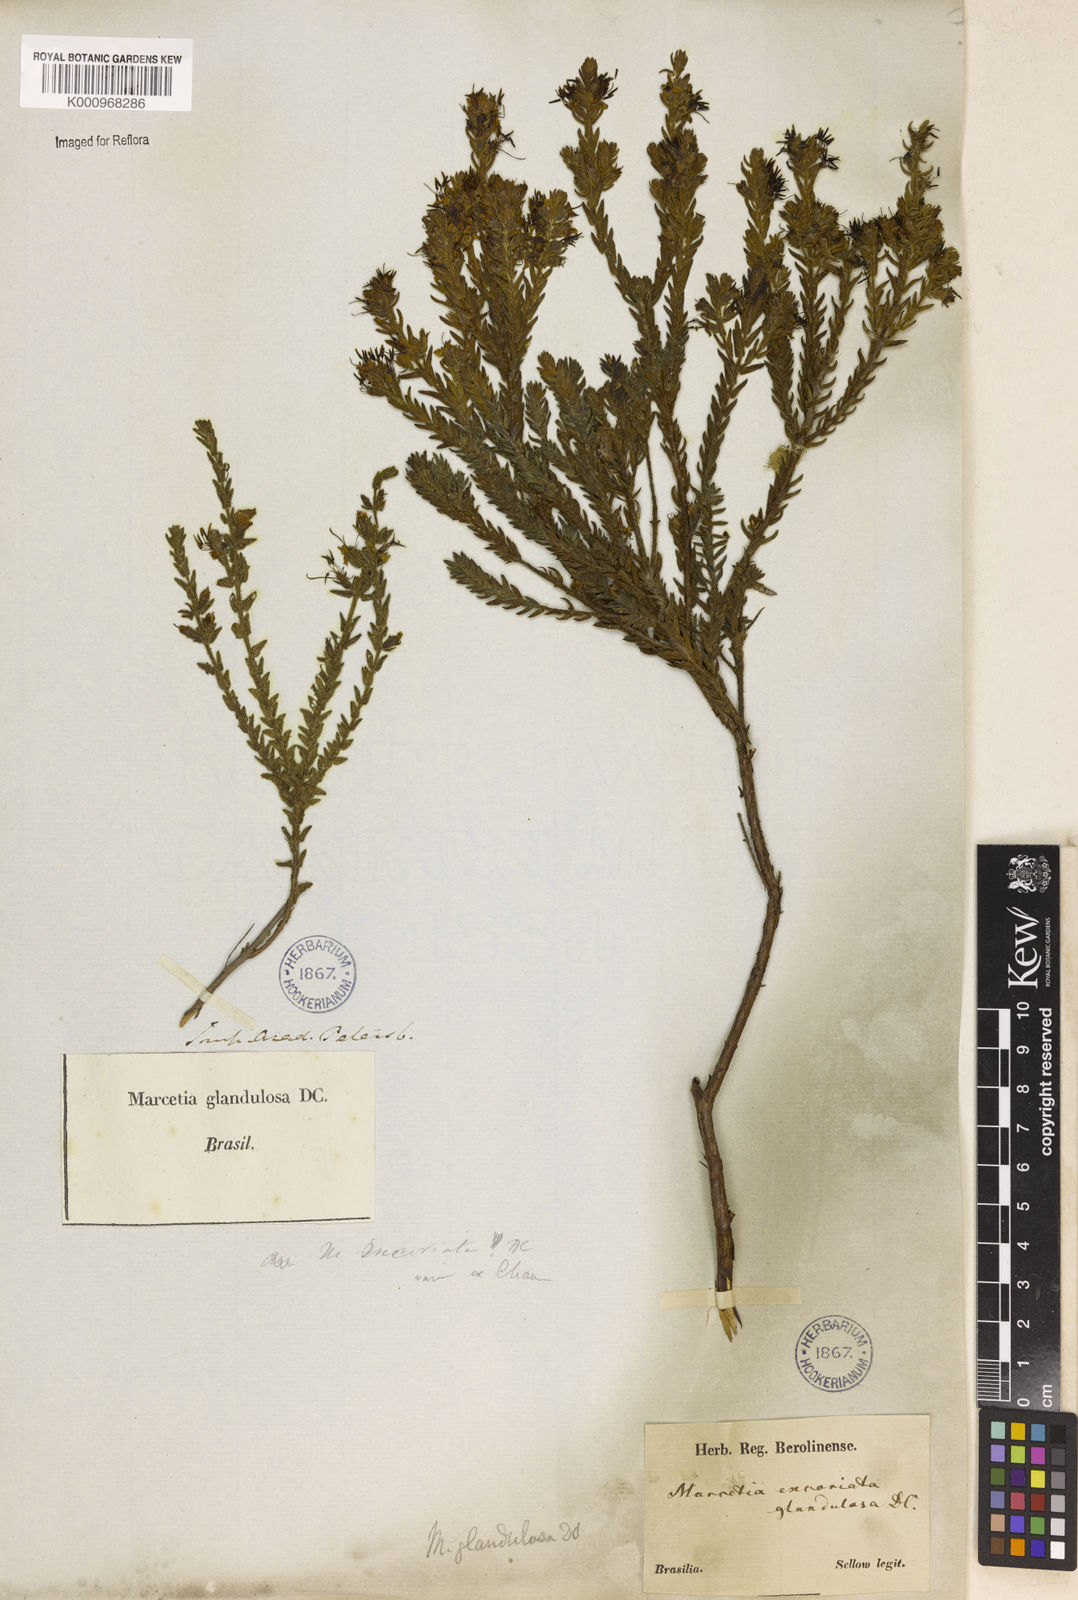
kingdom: Plantae
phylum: Tracheophyta
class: Magnoliopsida
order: Myrtales
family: Melastomataceae
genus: Marcetia
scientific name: Marcetia taxifolia
